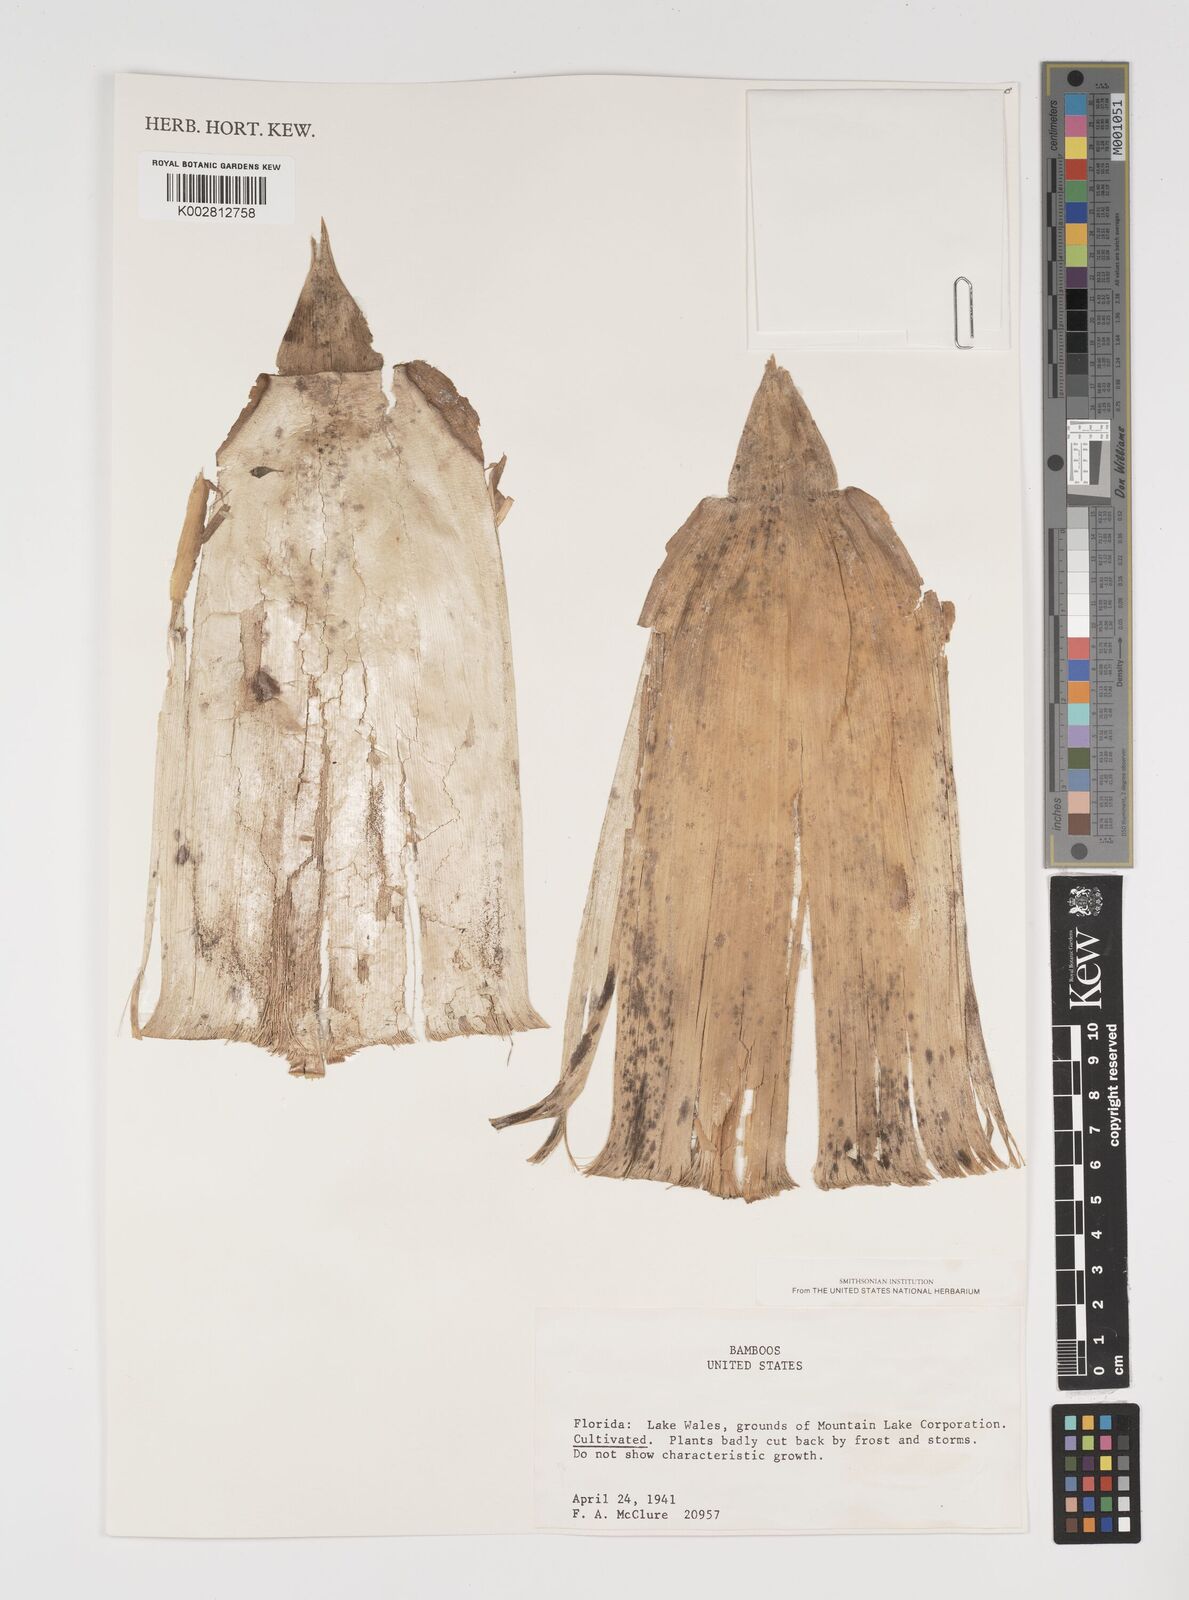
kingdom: Plantae
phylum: Tracheophyta
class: Liliopsida
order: Poales
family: Poaceae
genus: Arundinaria
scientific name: Arundinaria
